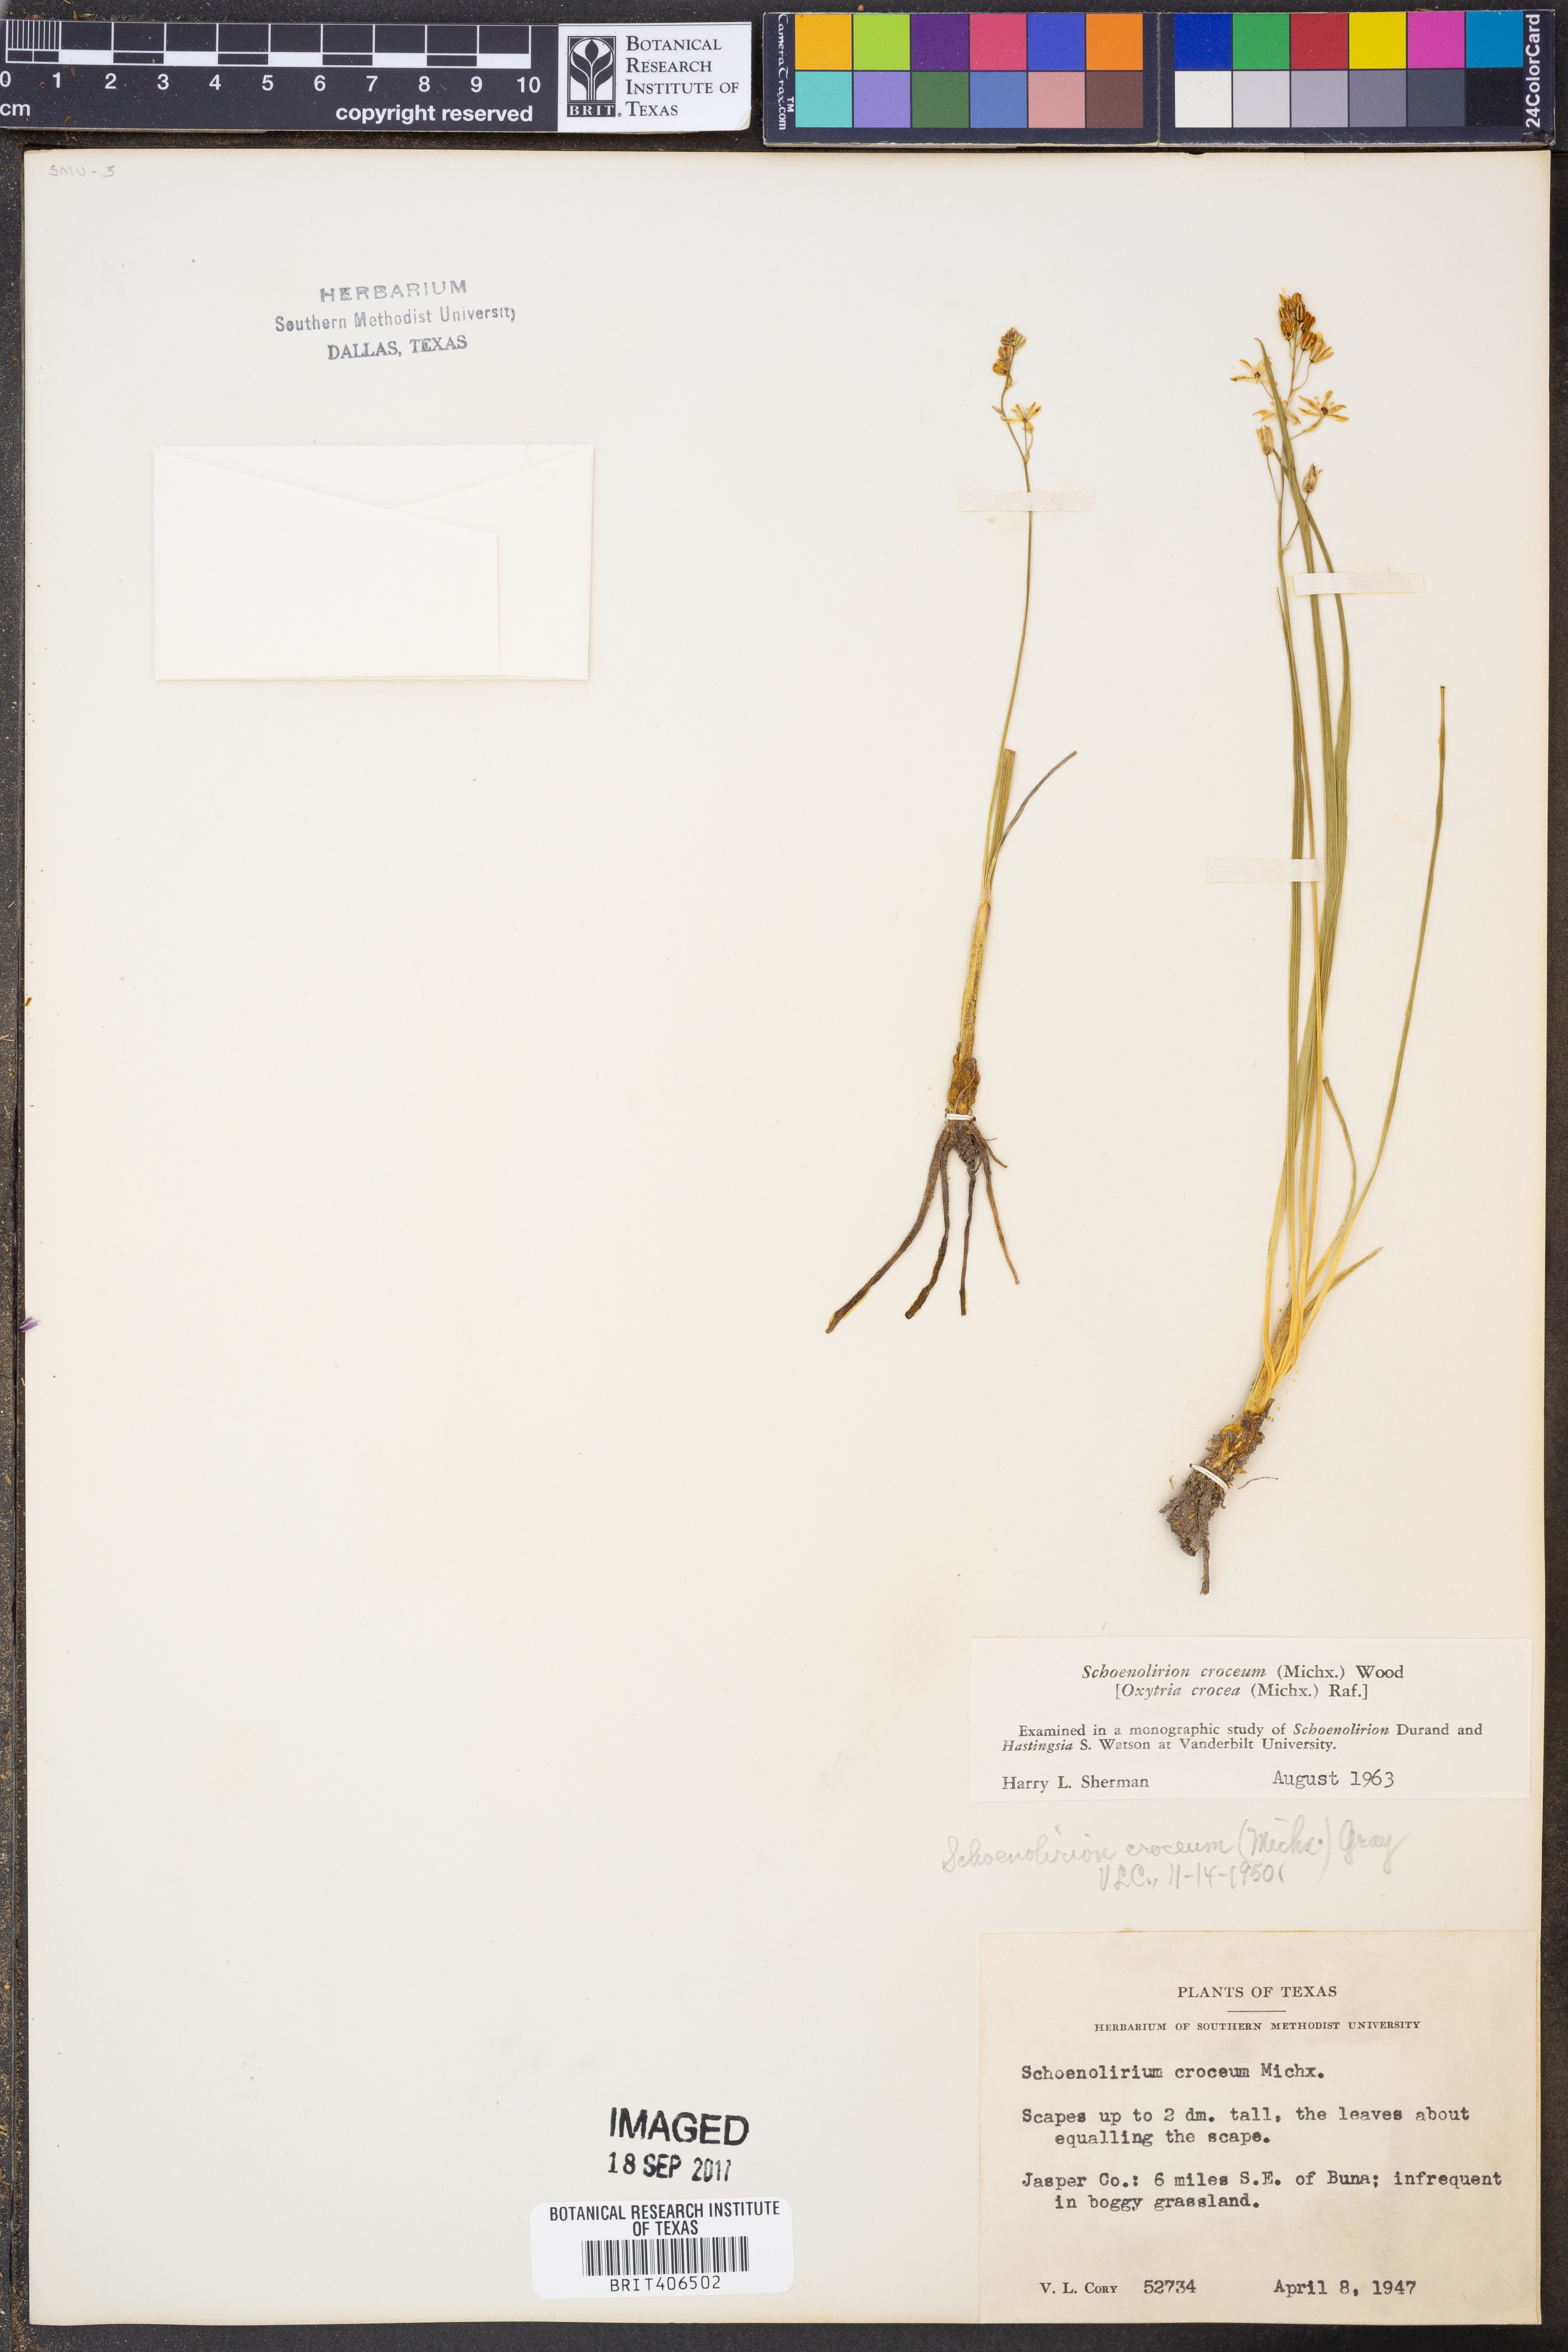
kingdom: Plantae
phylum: Tracheophyta
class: Liliopsida
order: Asparagales
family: Asparagaceae
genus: Schoenolirion
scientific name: Schoenolirion croceum
